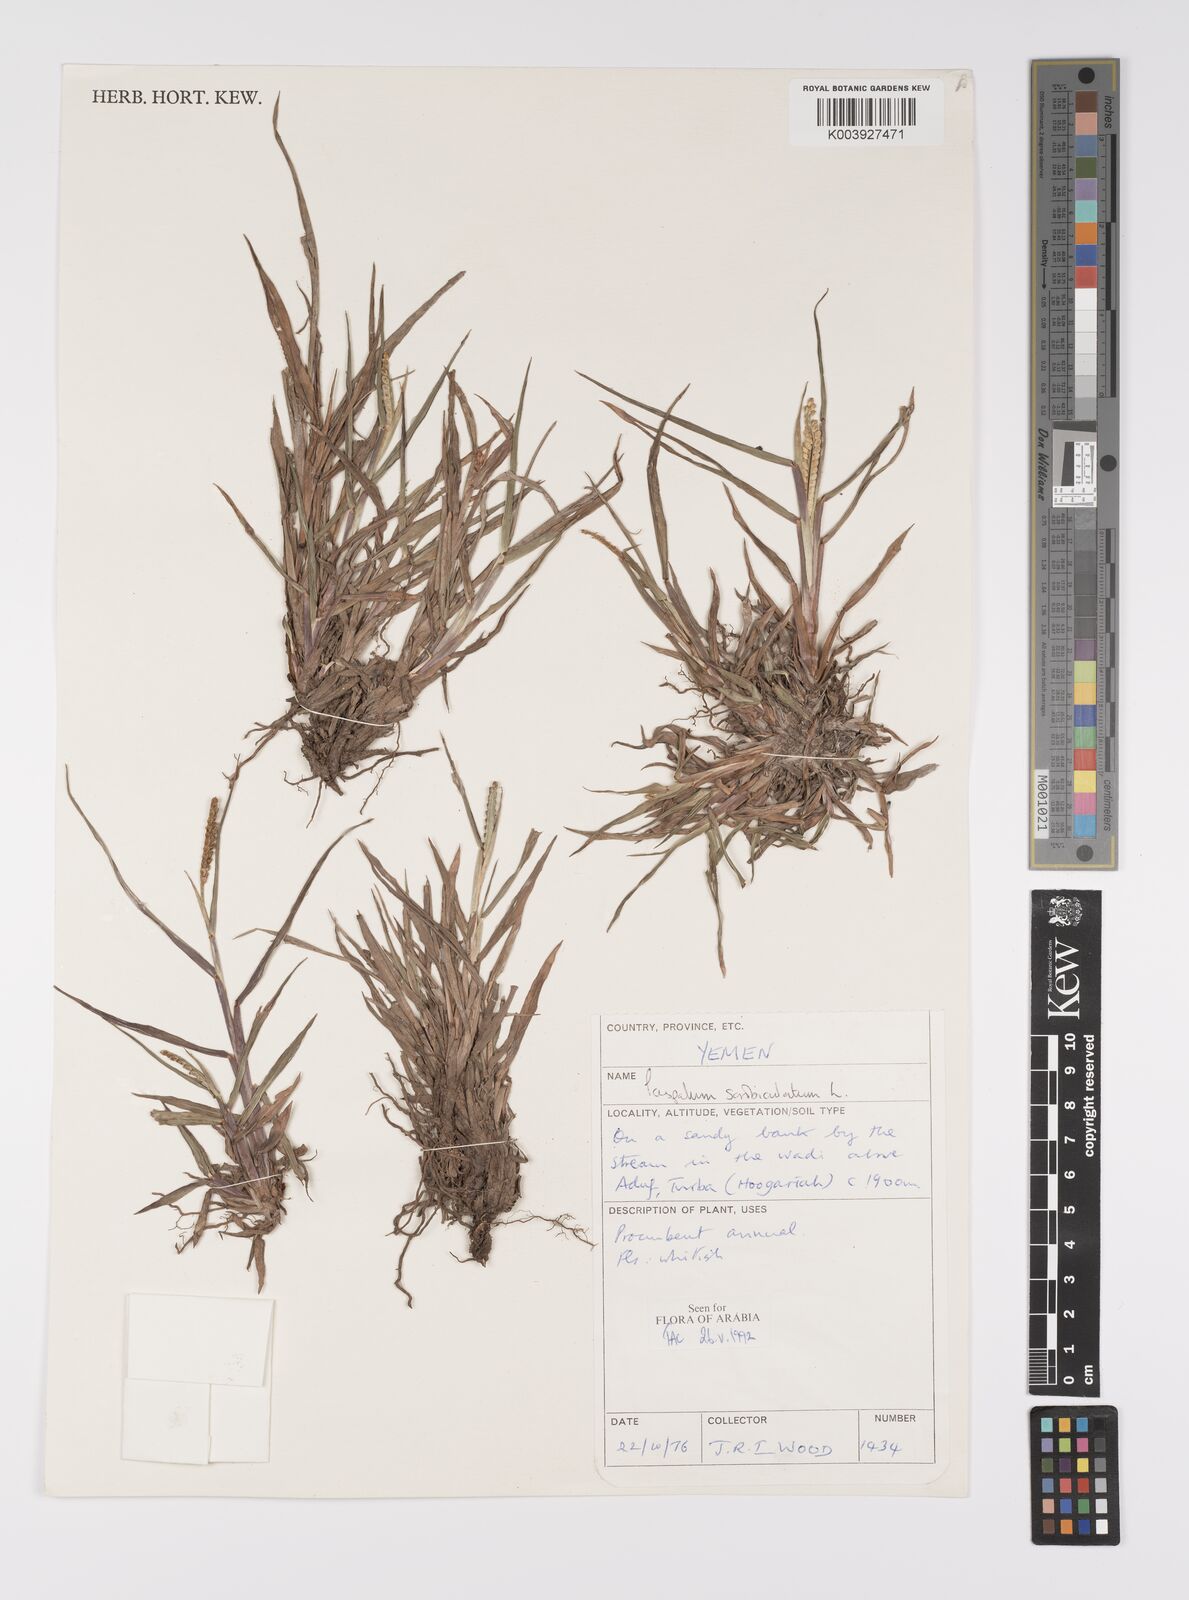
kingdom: Plantae
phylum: Tracheophyta
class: Liliopsida
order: Poales
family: Poaceae
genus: Paspalum
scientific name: Paspalum scrobiculatum
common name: Kodo millet
